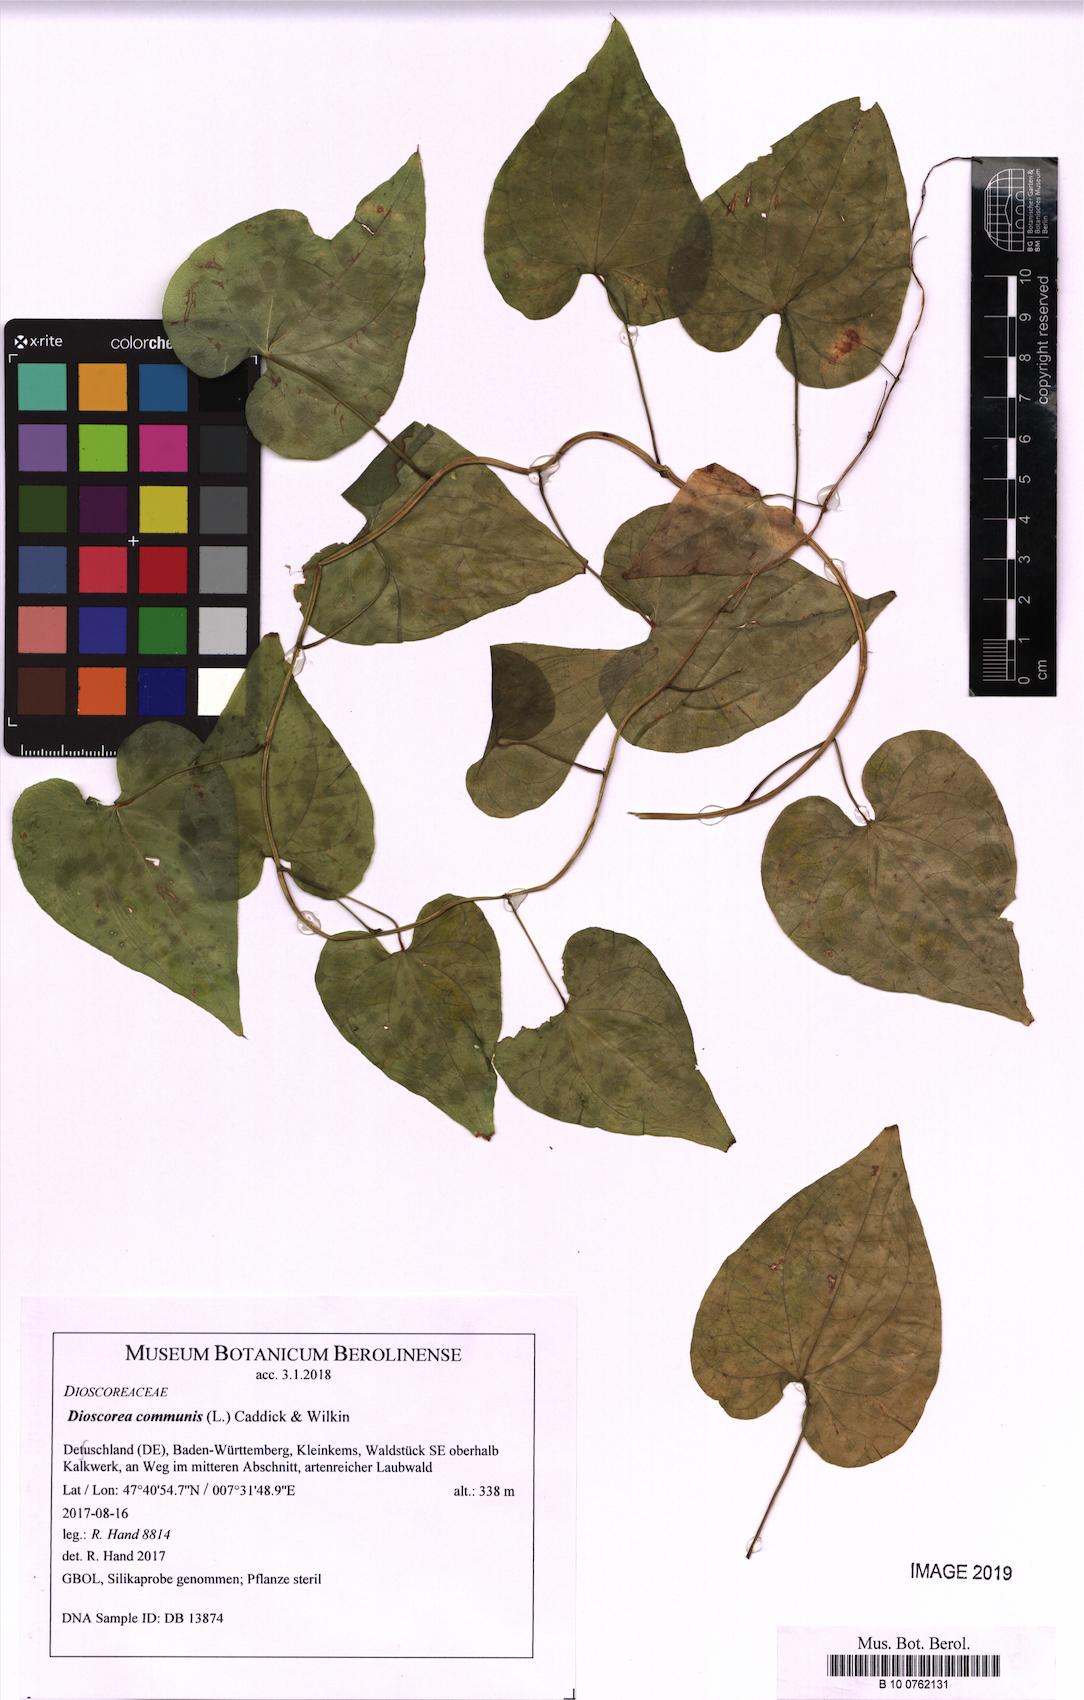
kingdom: Plantae
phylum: Tracheophyta
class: Liliopsida
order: Dioscoreales
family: Dioscoreaceae
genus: Dioscorea
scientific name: Dioscorea communis
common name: Black-bindweed
